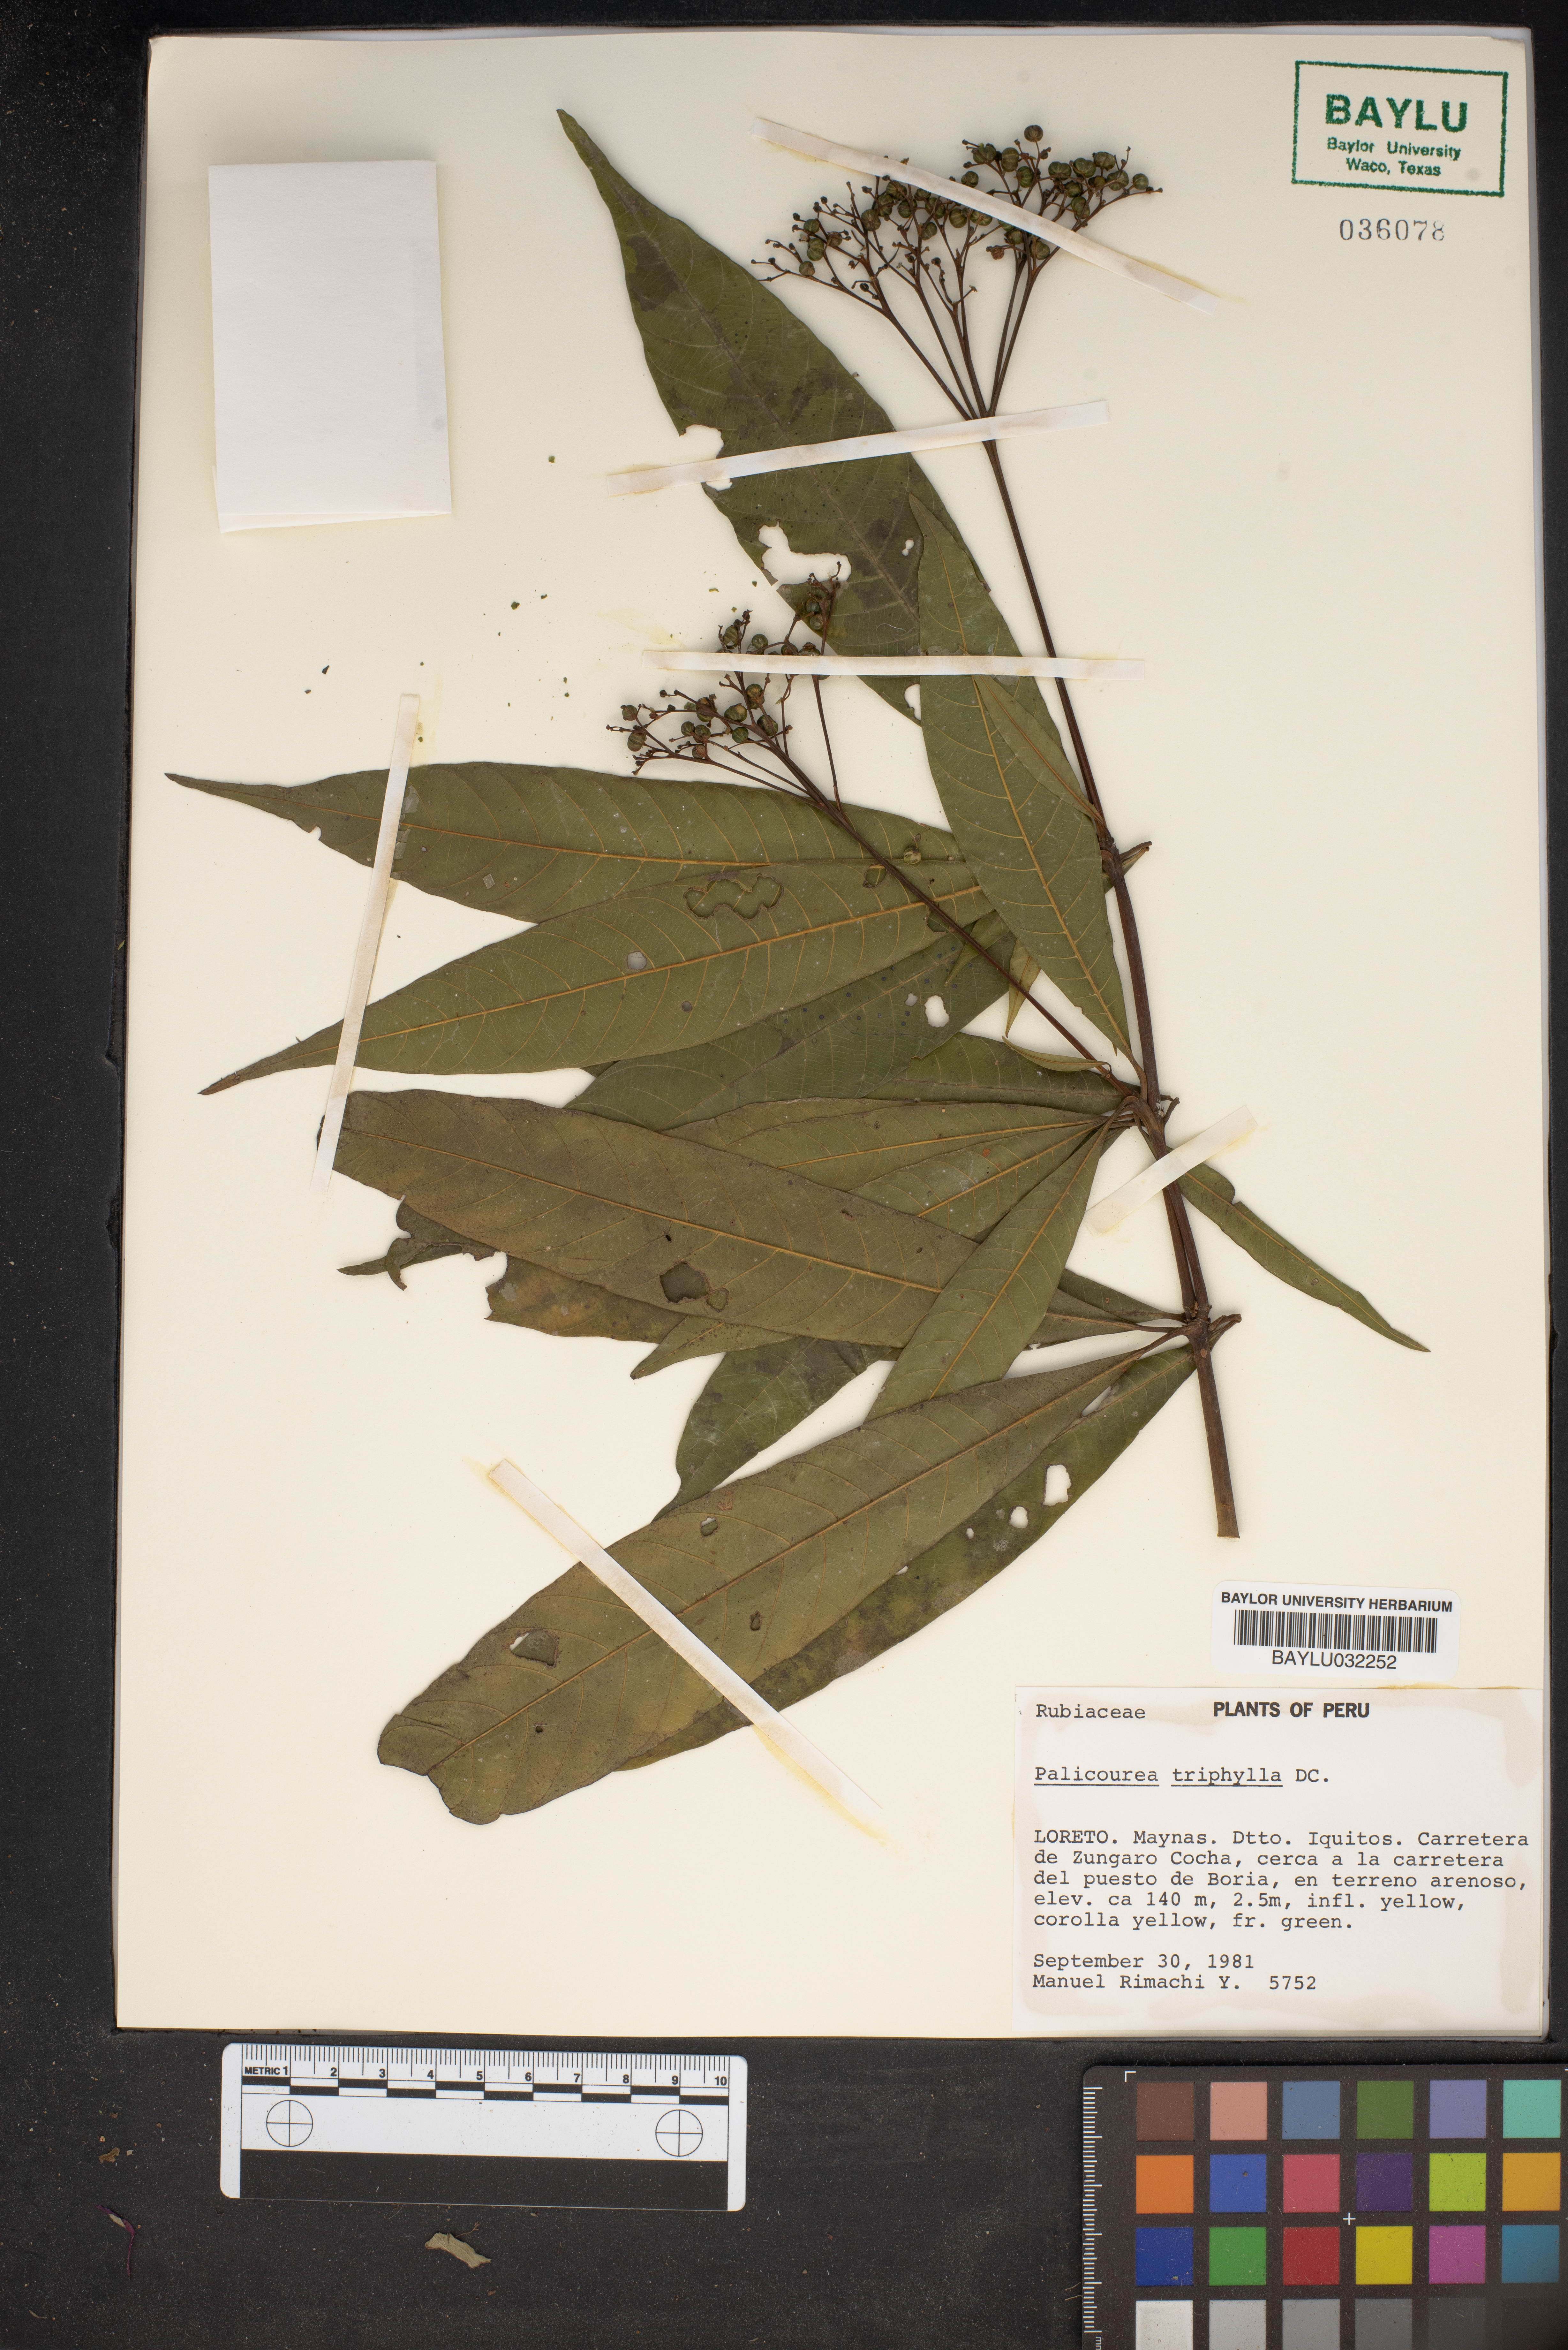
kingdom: Plantae
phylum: Tracheophyta
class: Magnoliopsida
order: Gentianales
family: Rubiaceae
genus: Palicourea
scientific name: Palicourea triphylla
